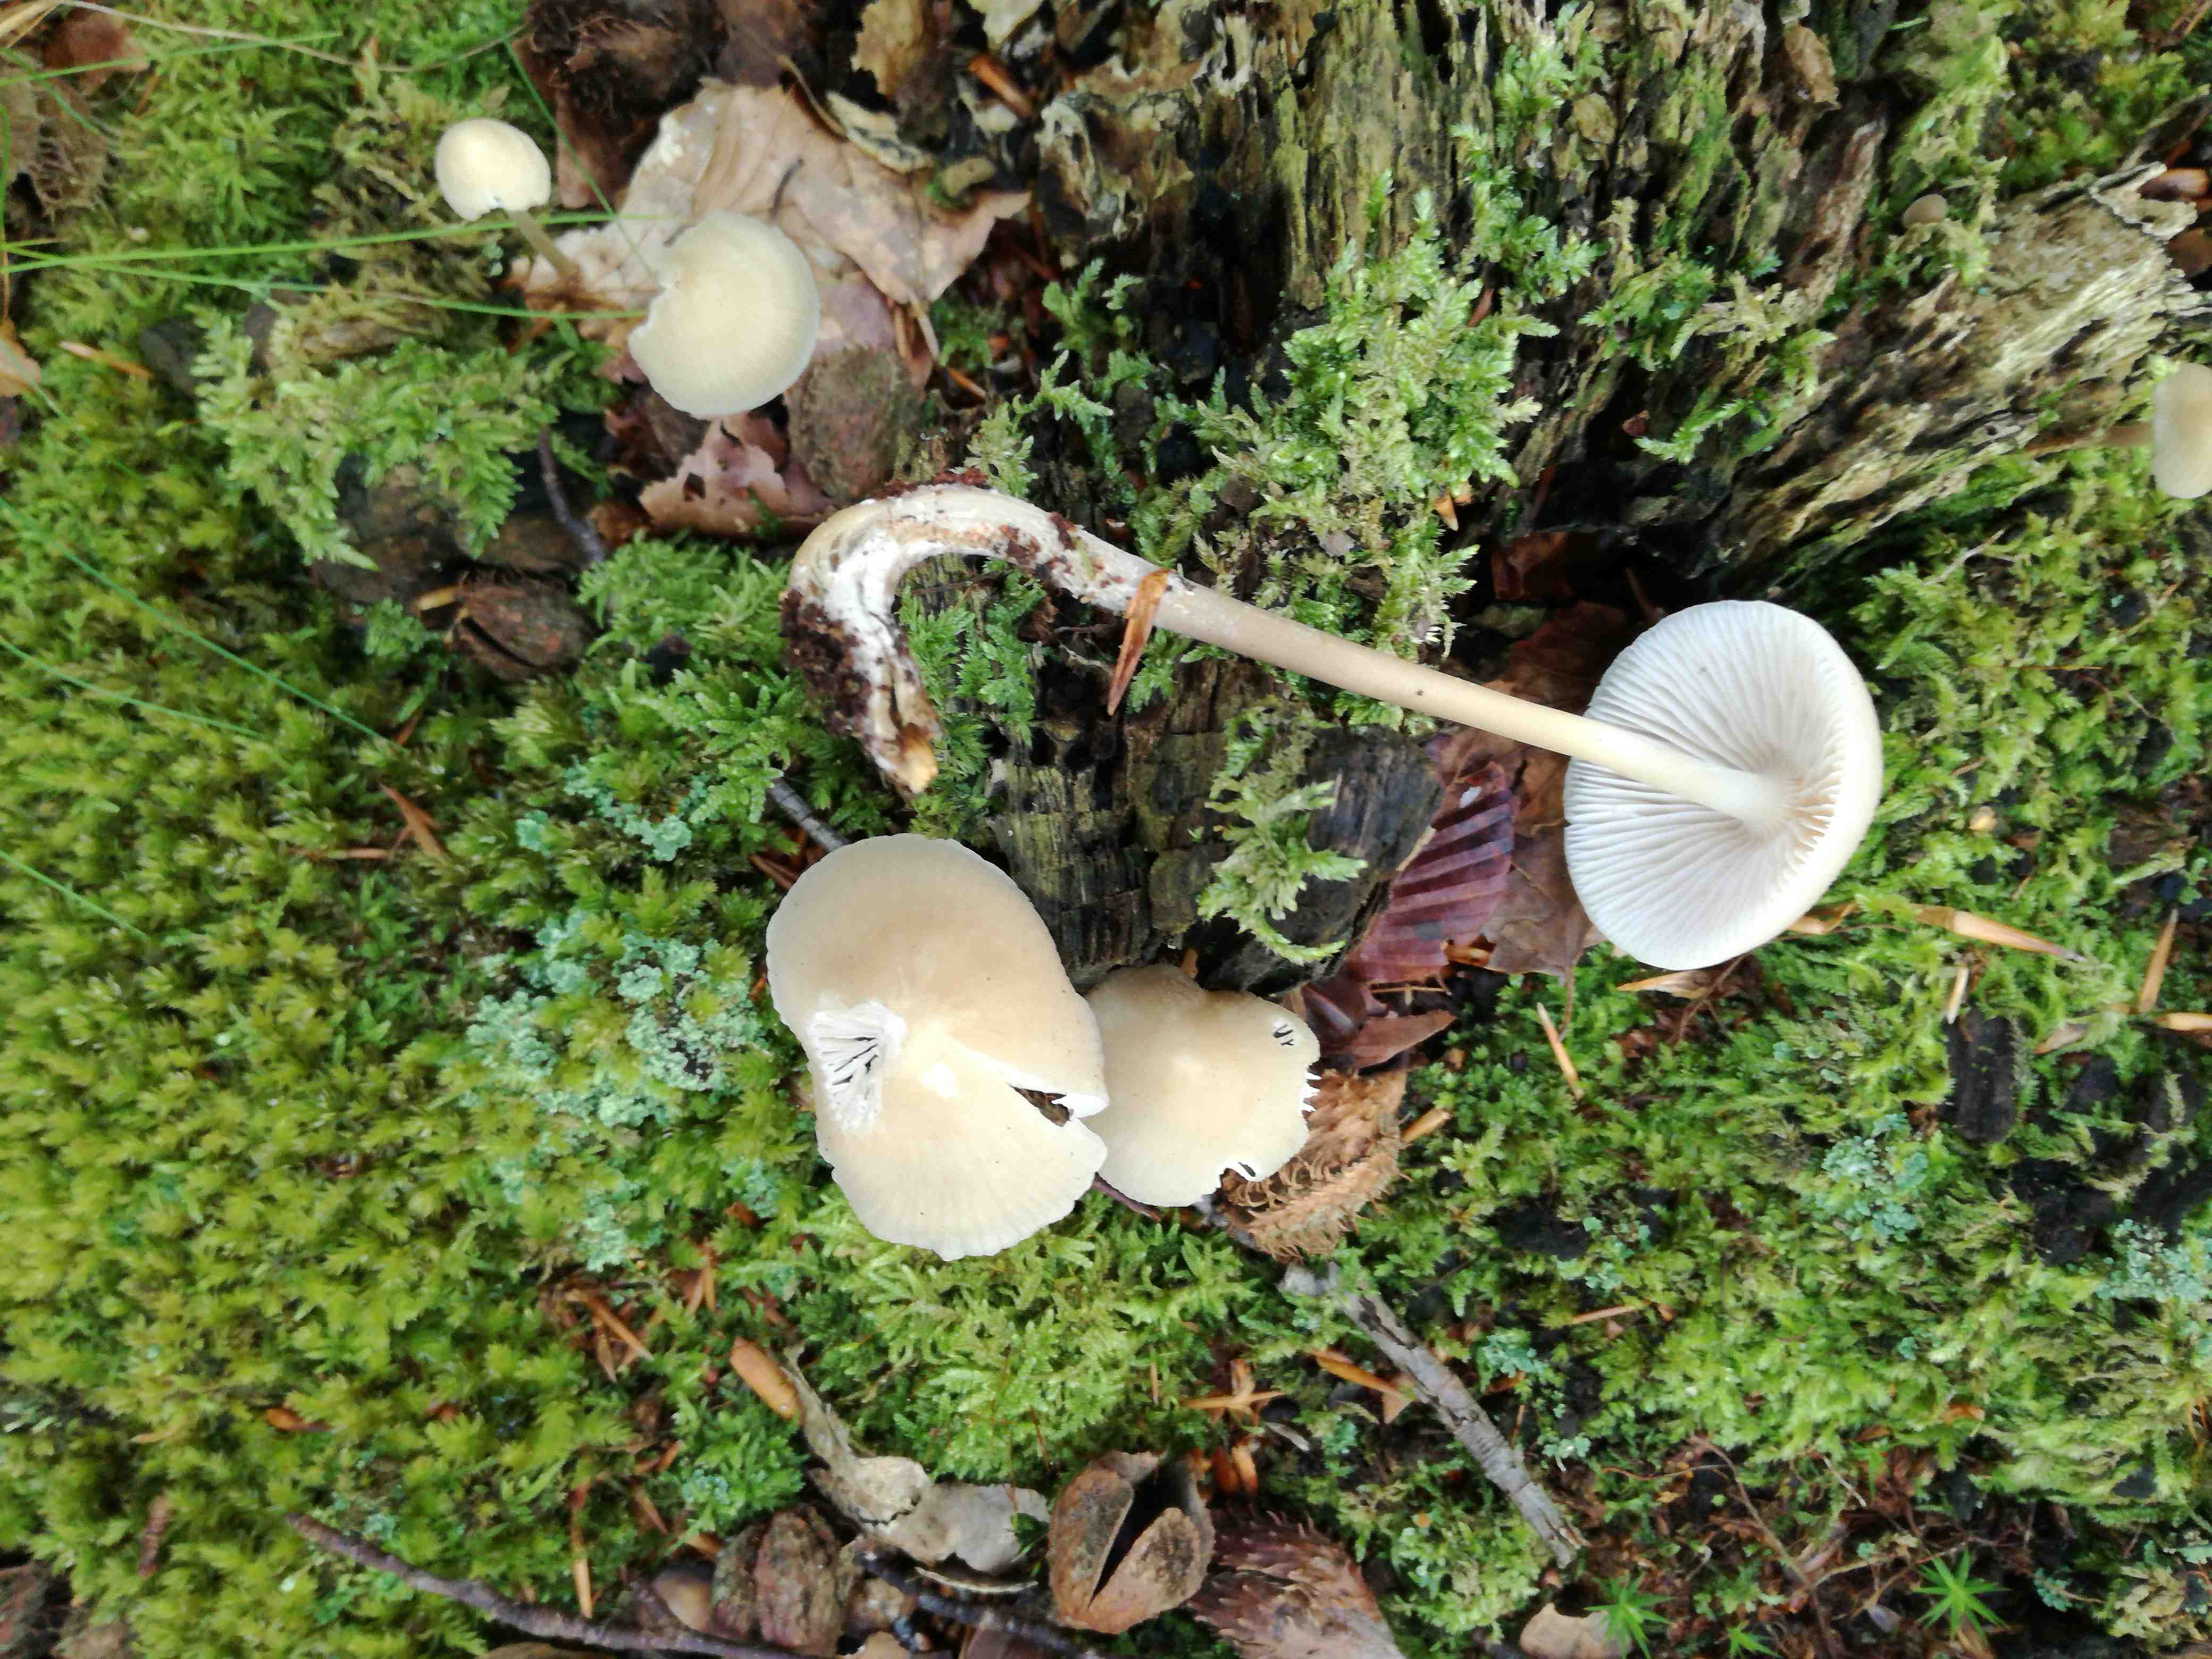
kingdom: Fungi
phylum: Basidiomycota
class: Agaricomycetes
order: Agaricales
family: Mycenaceae
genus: Mycena
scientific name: Mycena galericulata
